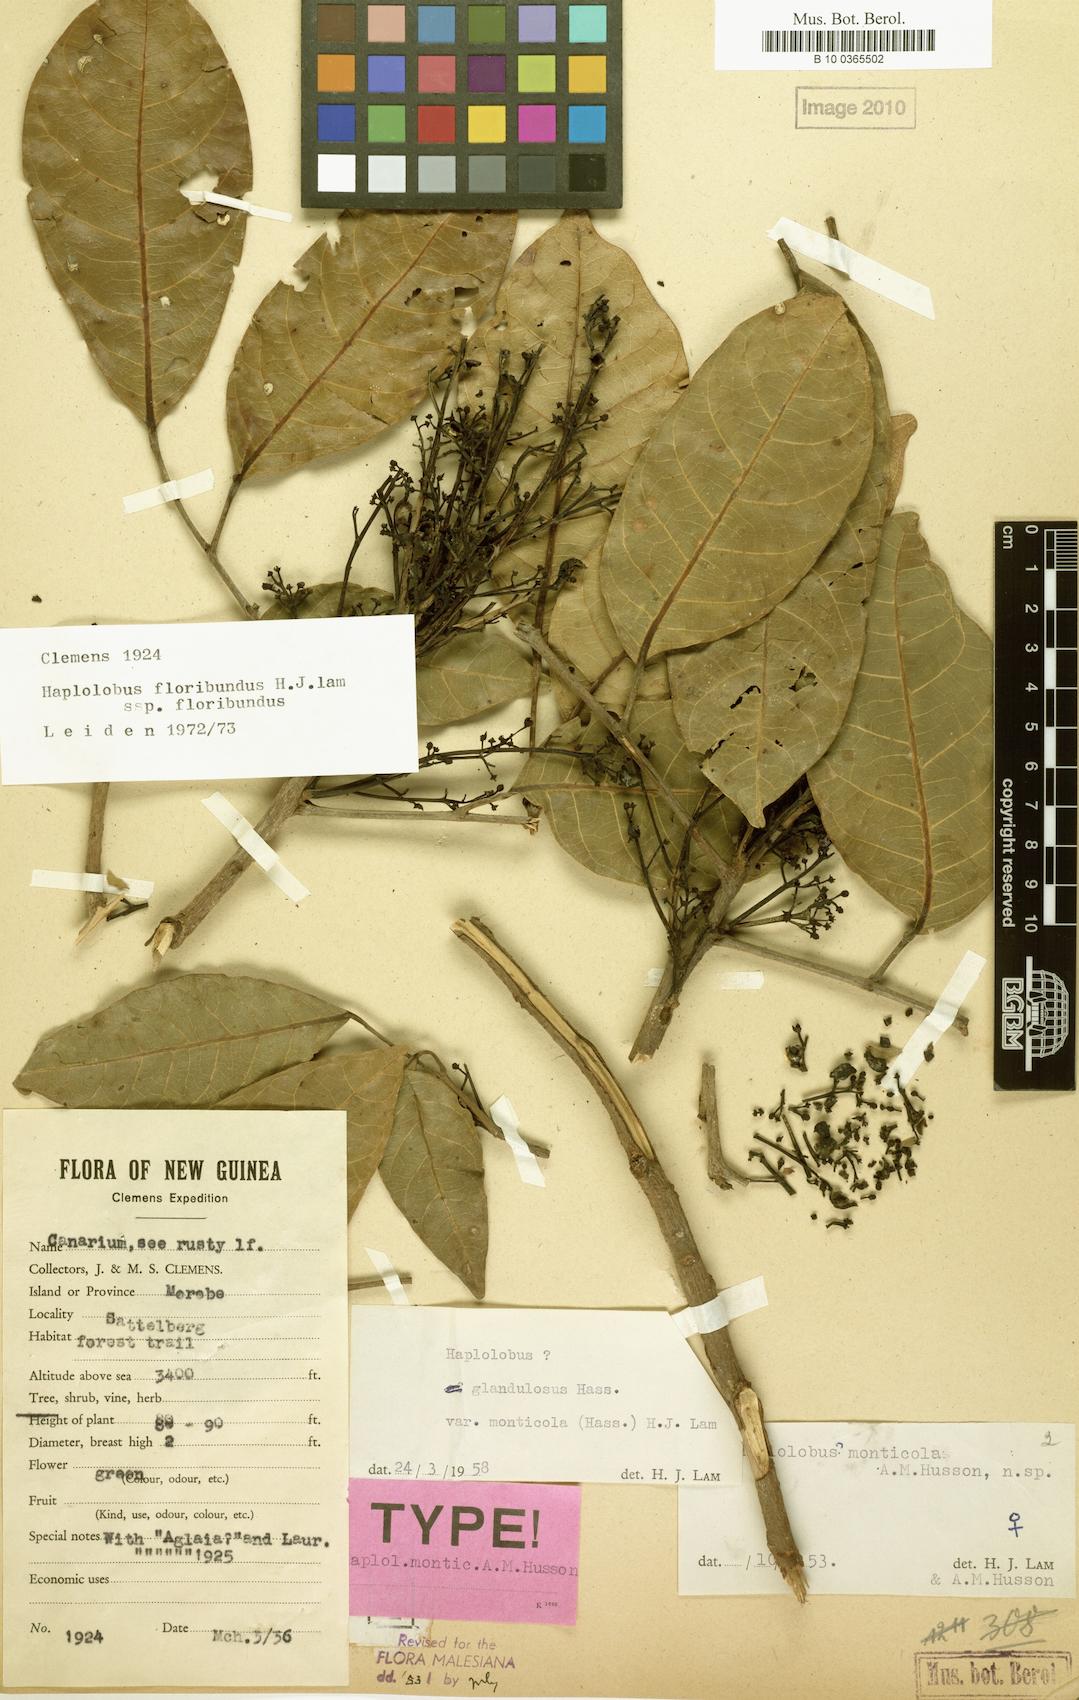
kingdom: Plantae
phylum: Tracheophyta
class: Magnoliopsida
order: Sapindales
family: Burseraceae
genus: Haplolobus
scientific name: Haplolobus floribundus
